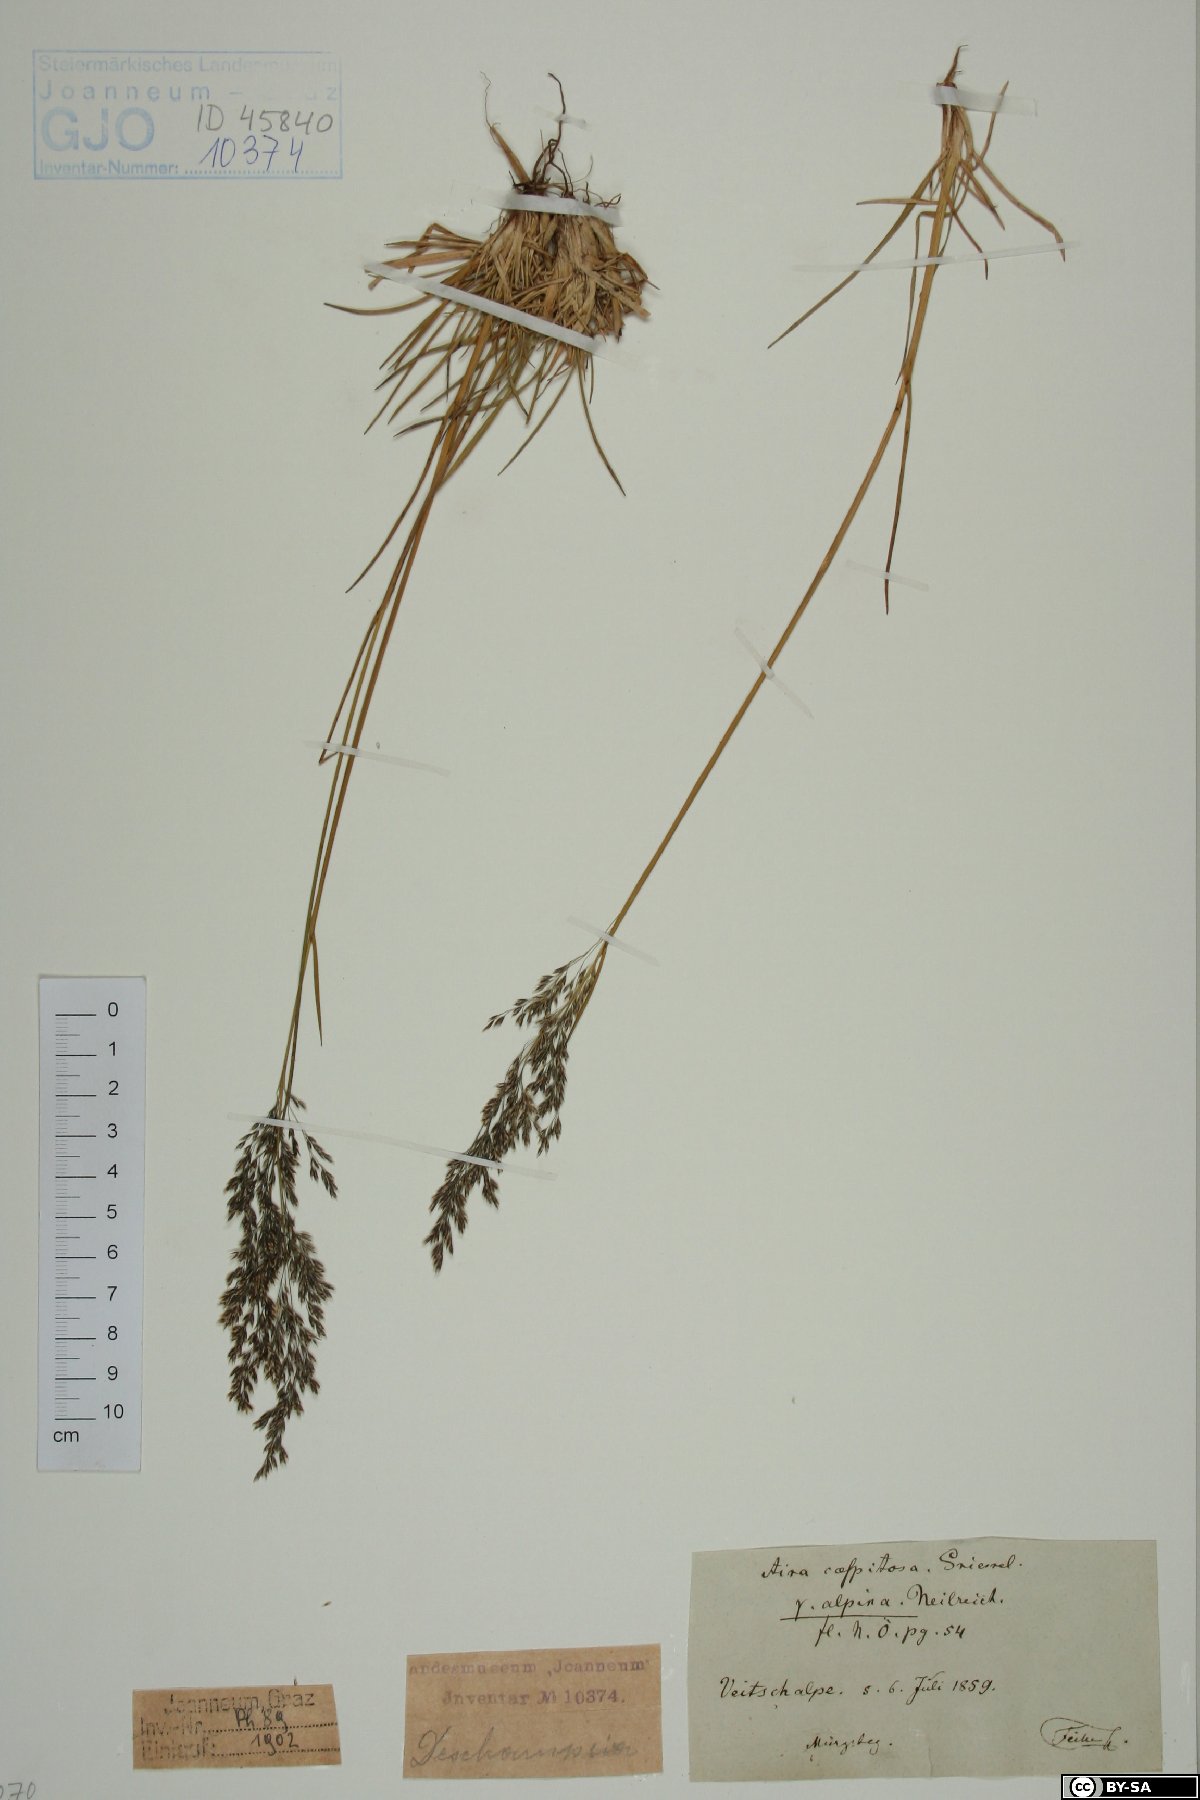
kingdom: Plantae
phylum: Tracheophyta
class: Liliopsida
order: Poales
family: Poaceae
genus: Deschampsia
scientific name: Deschampsia cespitosa
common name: Tufted hair-grass
